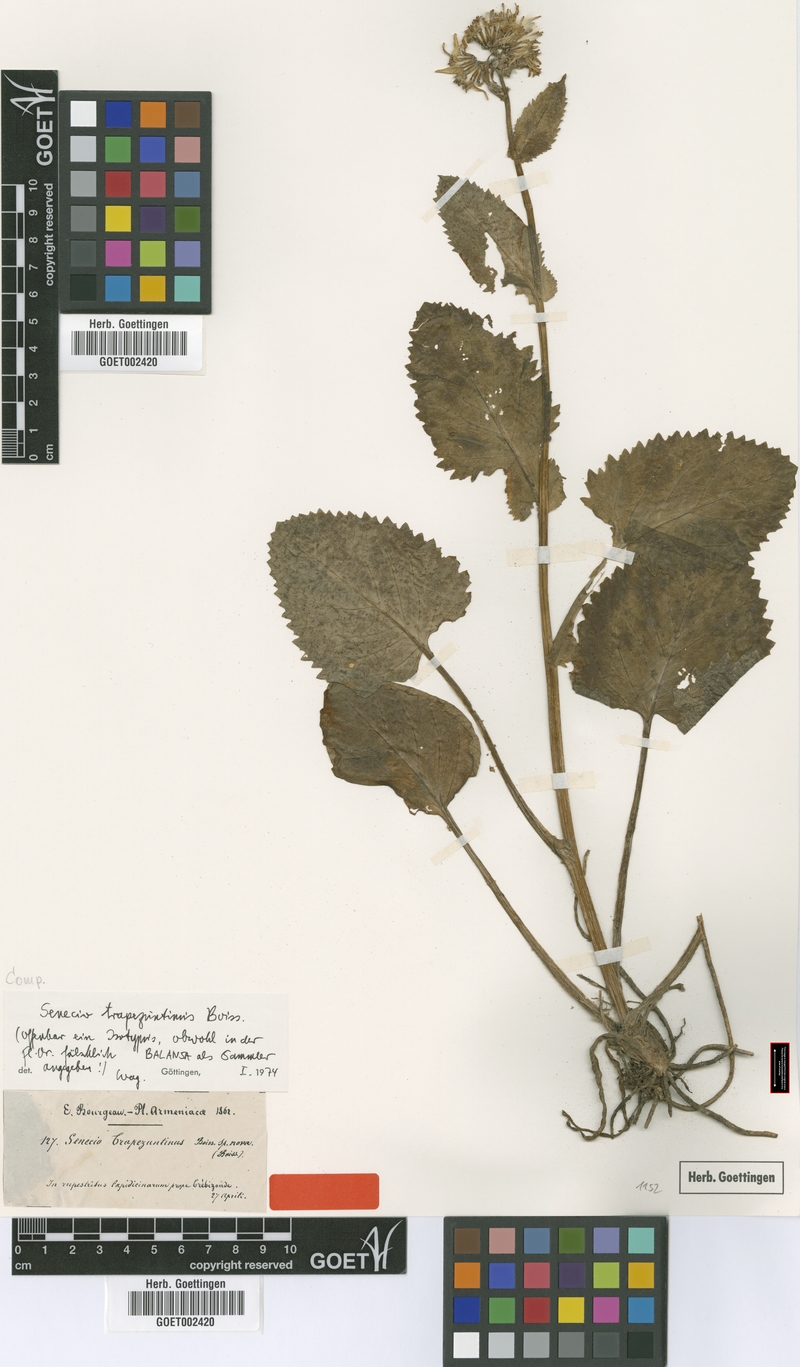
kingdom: Plantae
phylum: Tracheophyta
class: Magnoliopsida
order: Asterales
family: Asteraceae
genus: Jacobaea
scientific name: Jacobaea trapezuntina
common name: Trapezuntian groundsel
